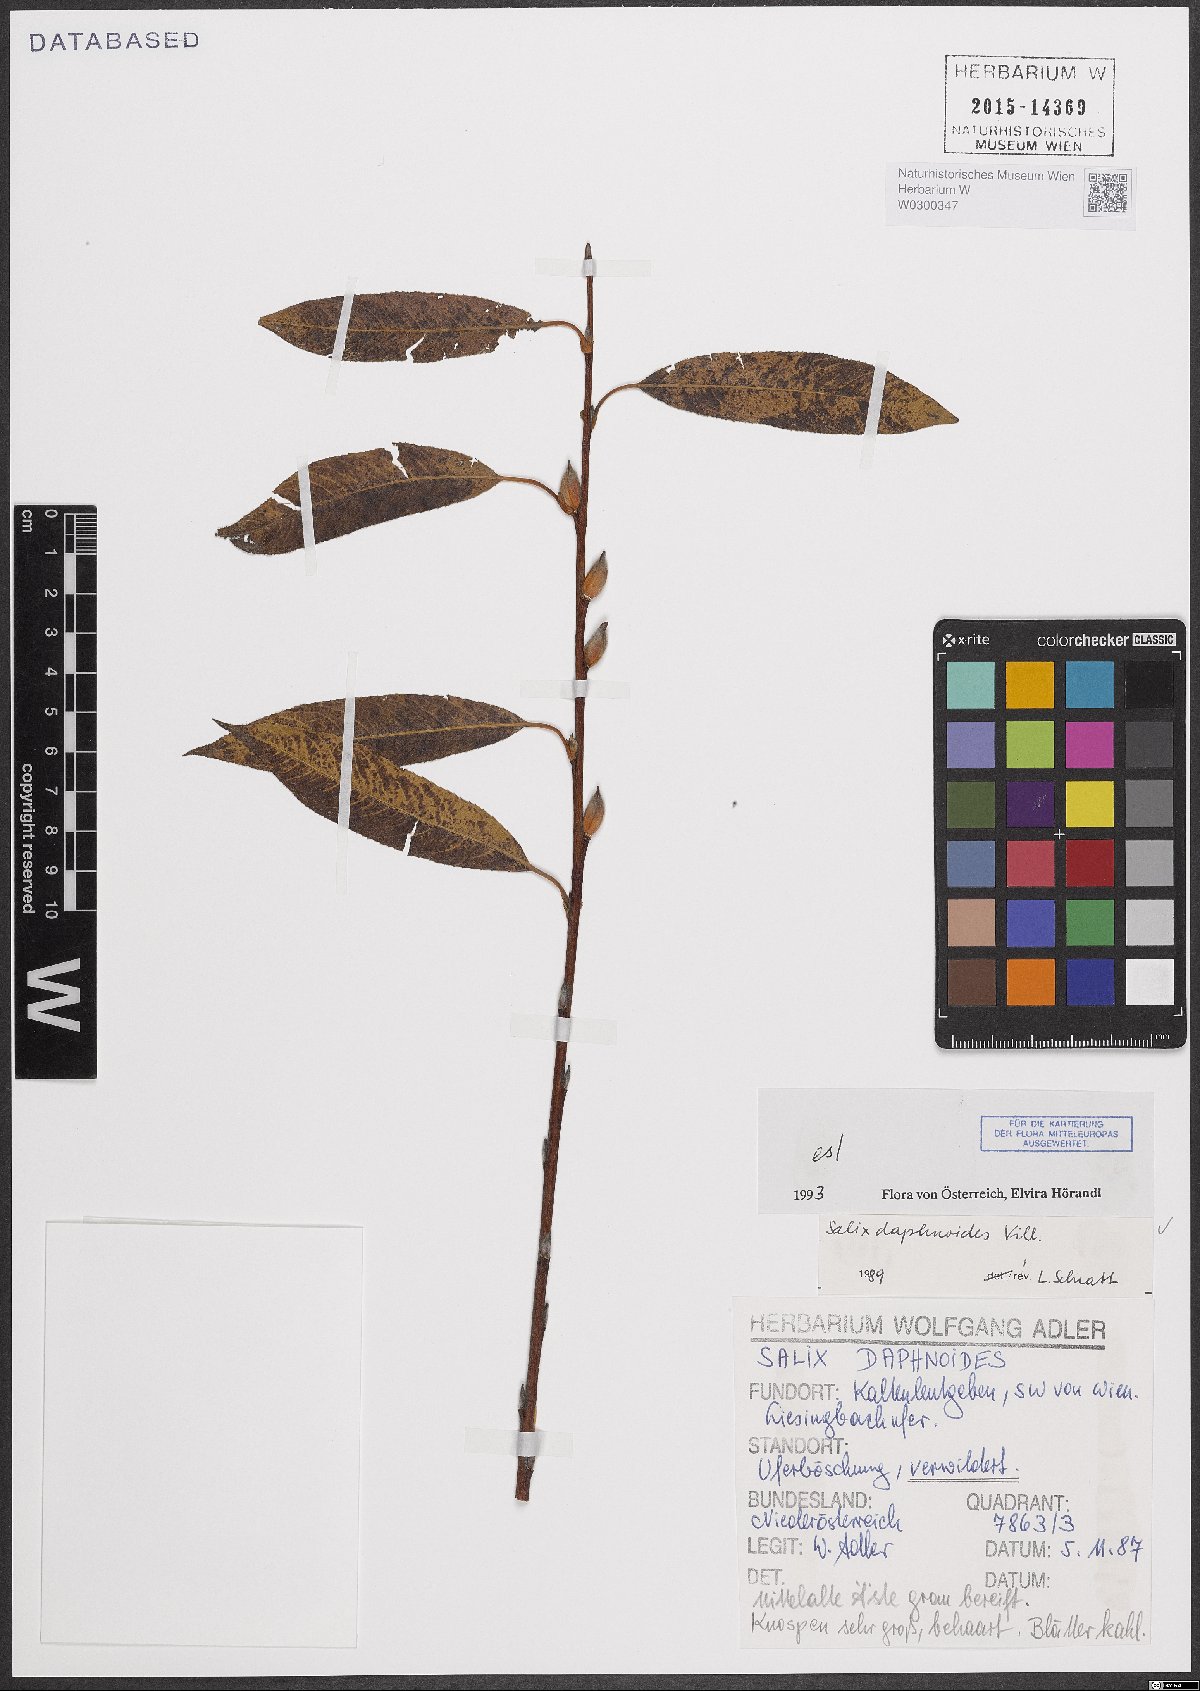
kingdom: Plantae
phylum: Tracheophyta
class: Magnoliopsida
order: Malpighiales
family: Salicaceae
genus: Salix
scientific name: Salix daphnoides
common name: European violet-willow
